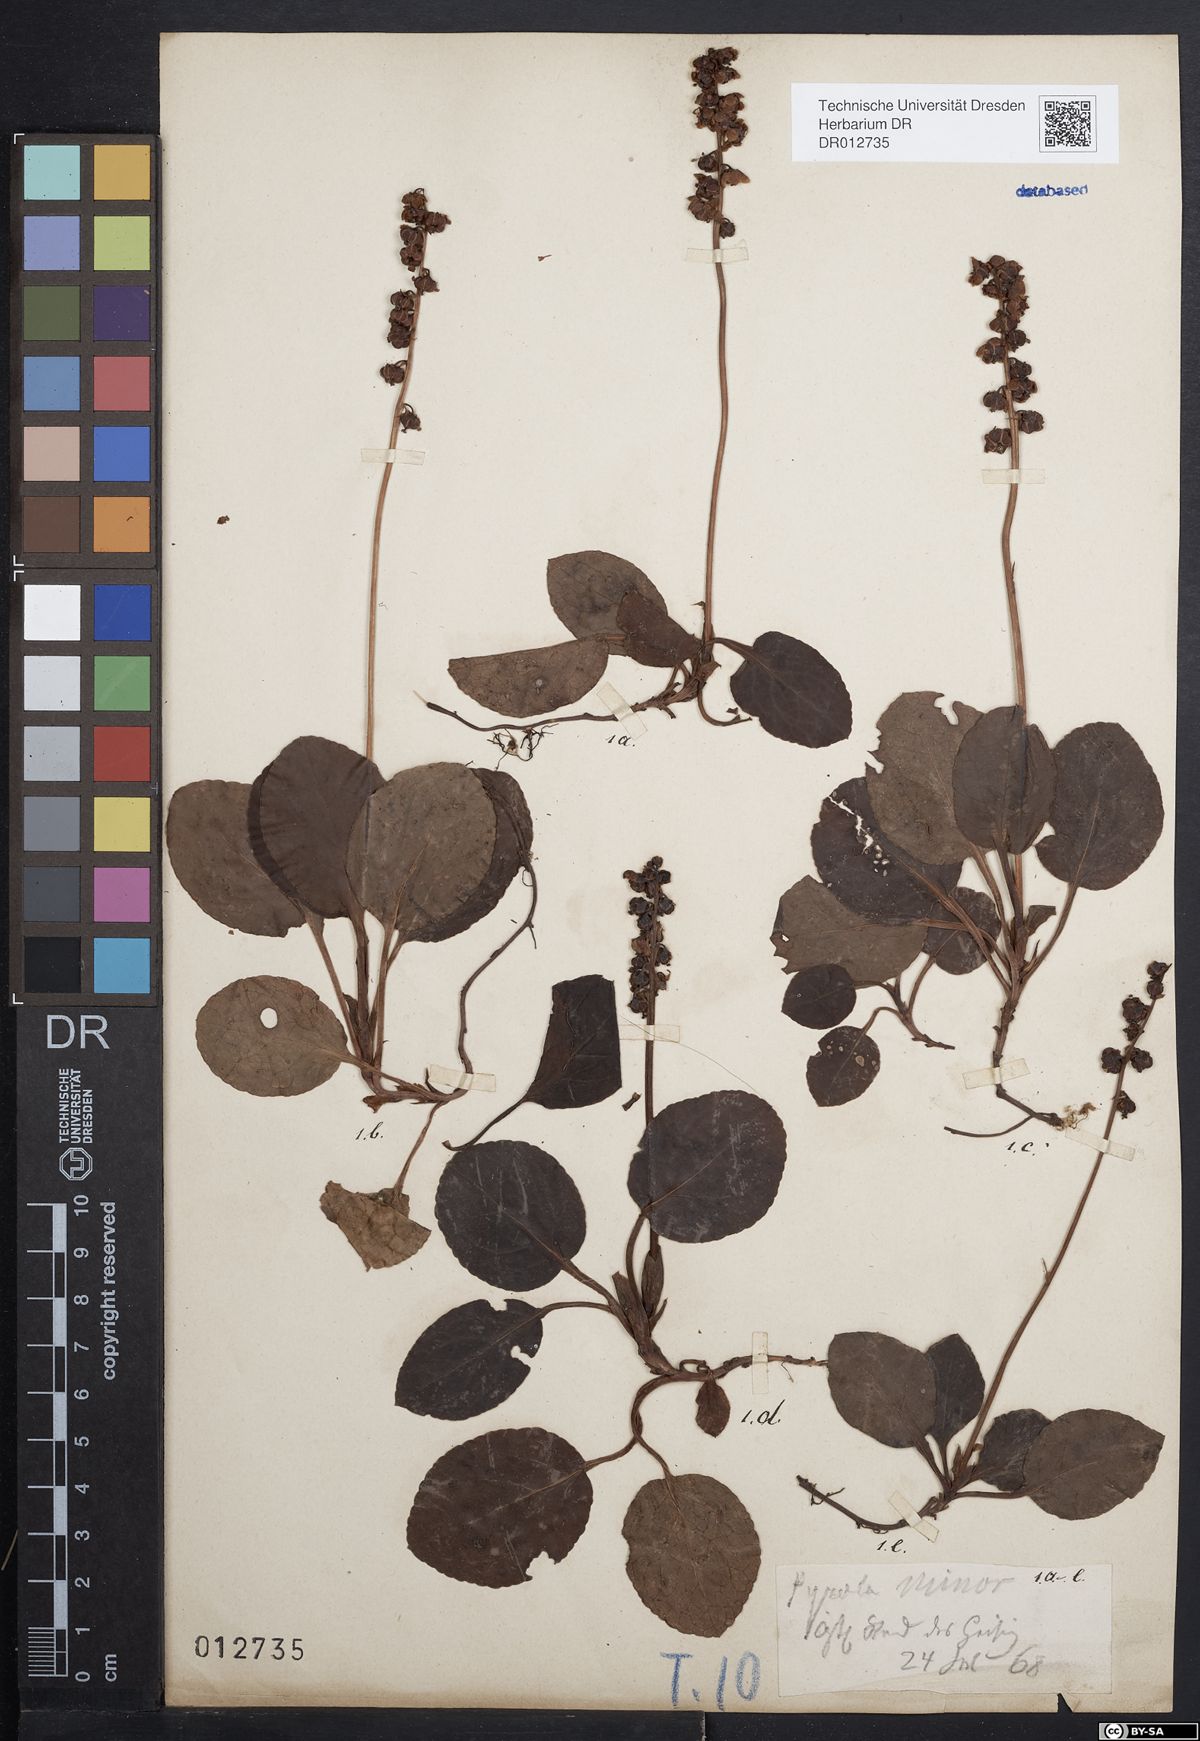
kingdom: Plantae
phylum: Tracheophyta
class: Magnoliopsida
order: Ericales
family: Ericaceae
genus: Pyrola
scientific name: Pyrola minor
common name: Common wintergreen
